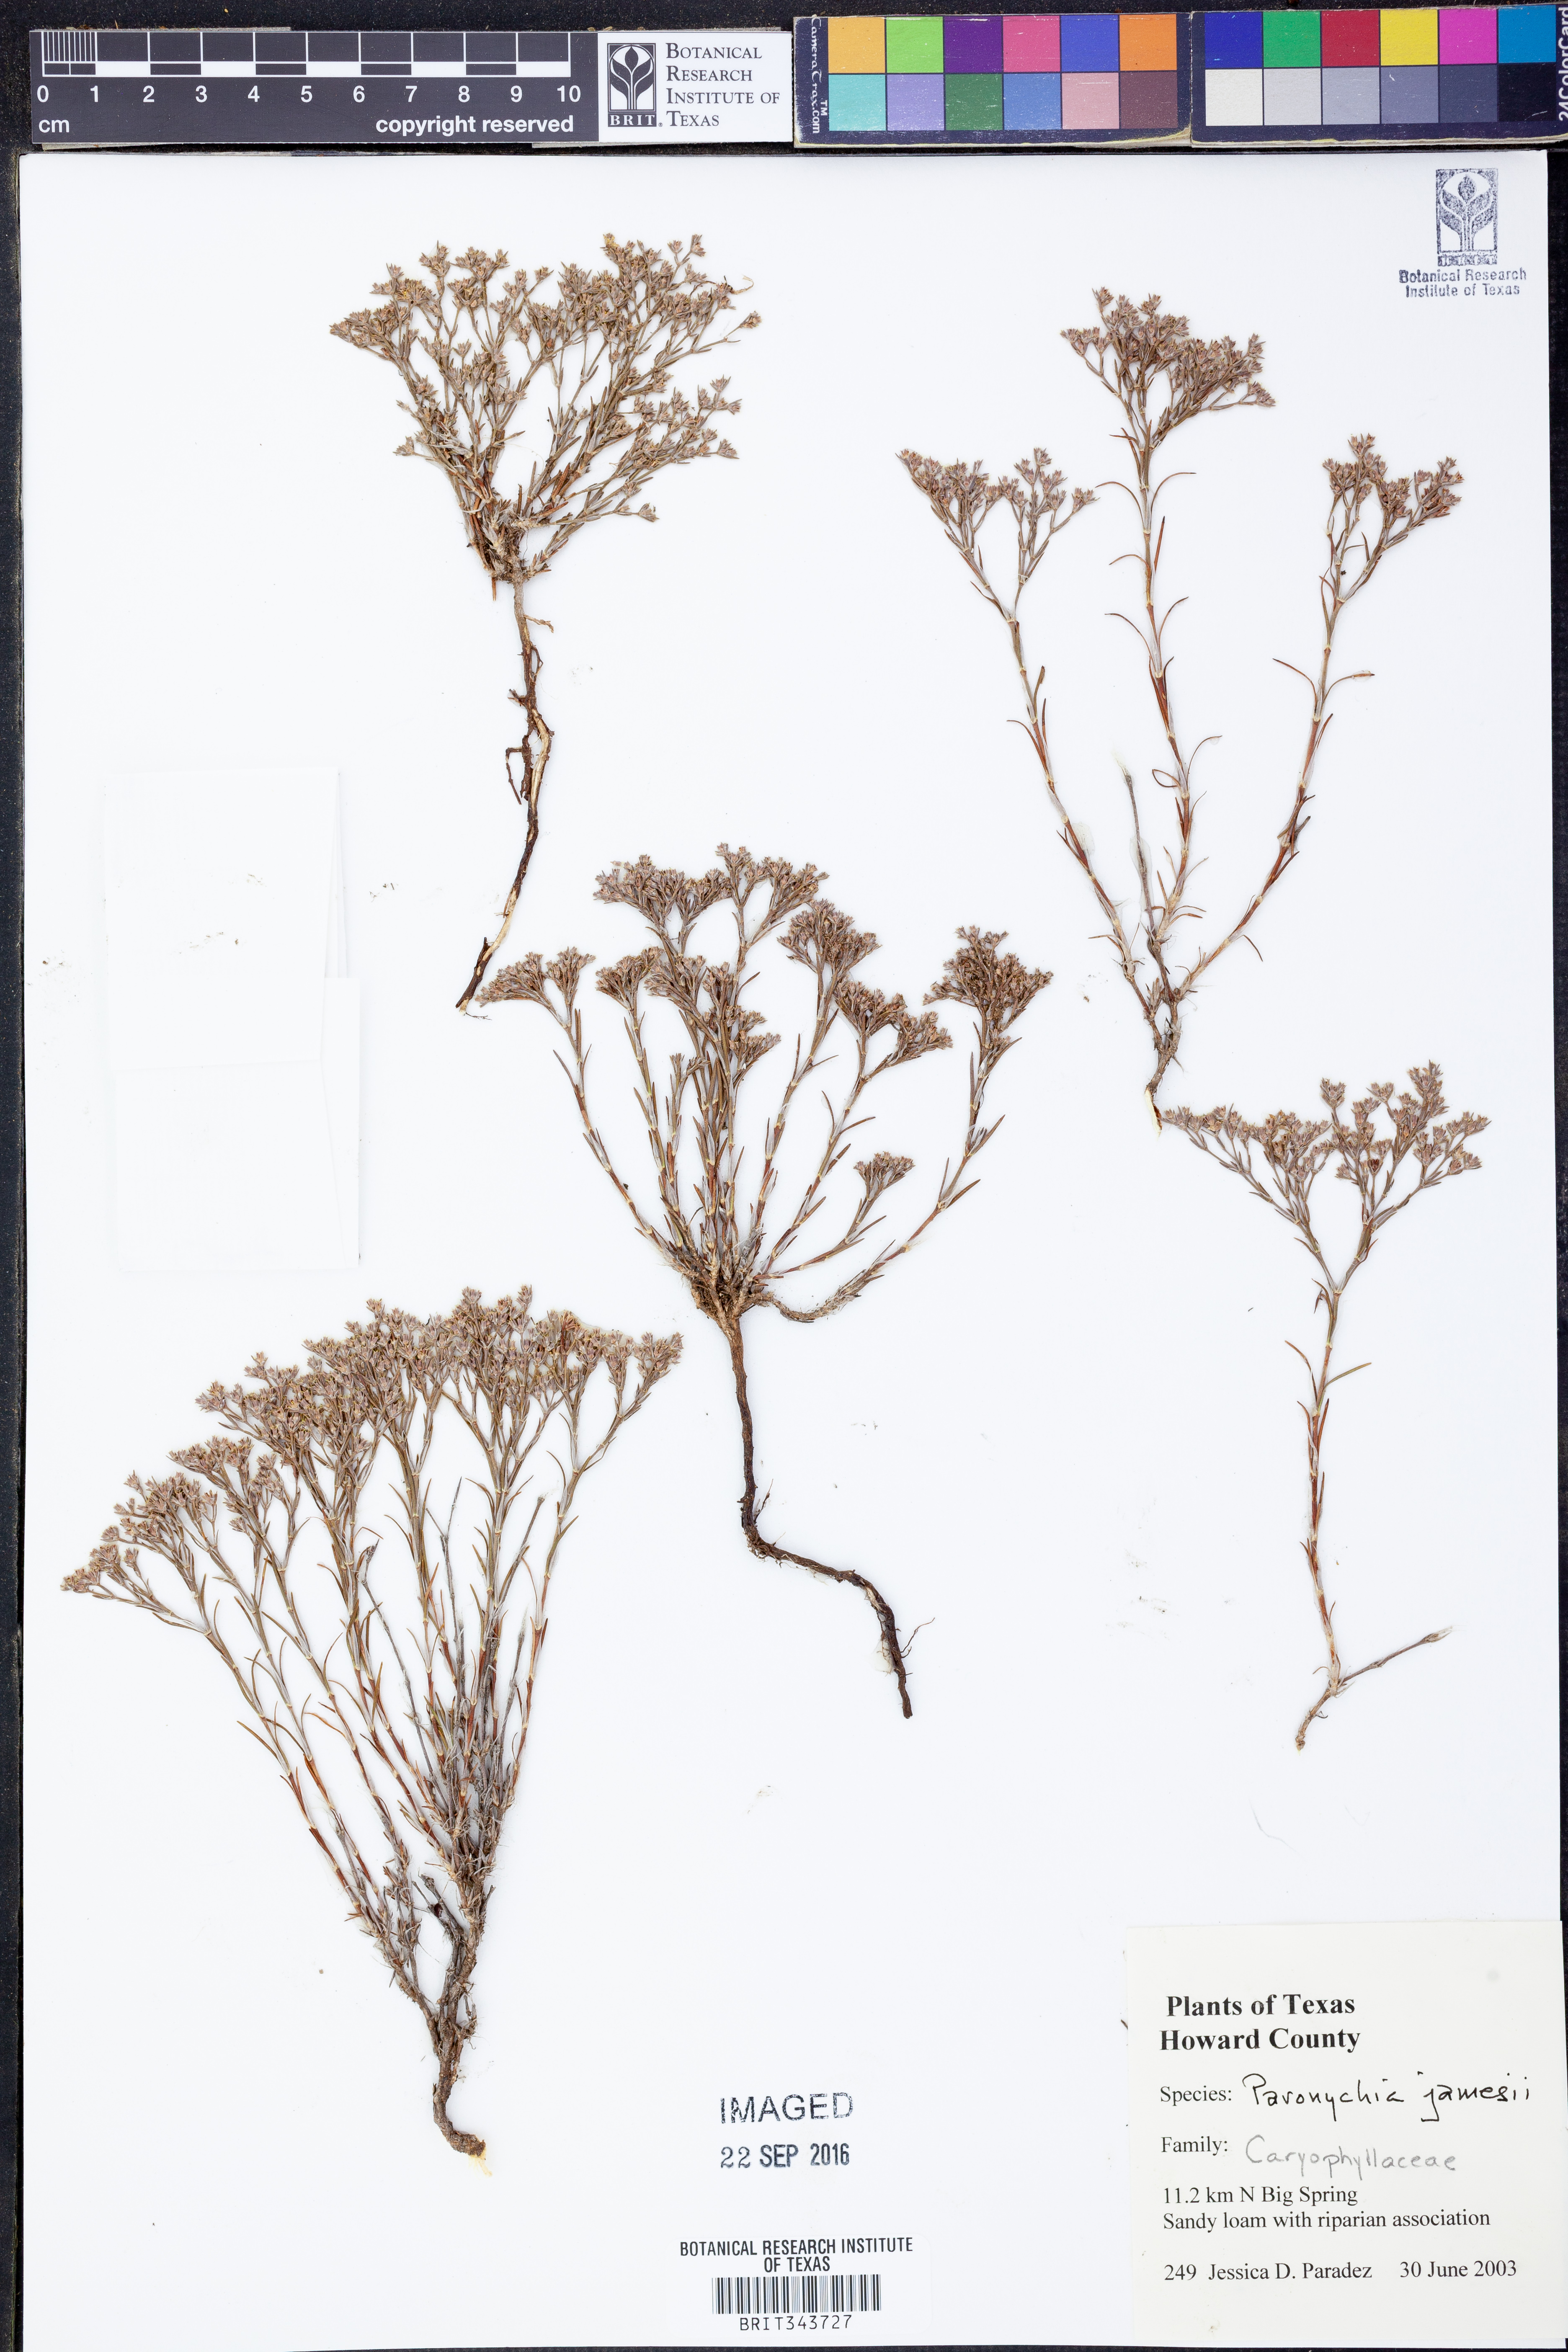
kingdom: Plantae
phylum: Tracheophyta
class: Magnoliopsida
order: Caryophyllales
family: Caryophyllaceae
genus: Paronychia
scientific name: Paronychia jamesii
